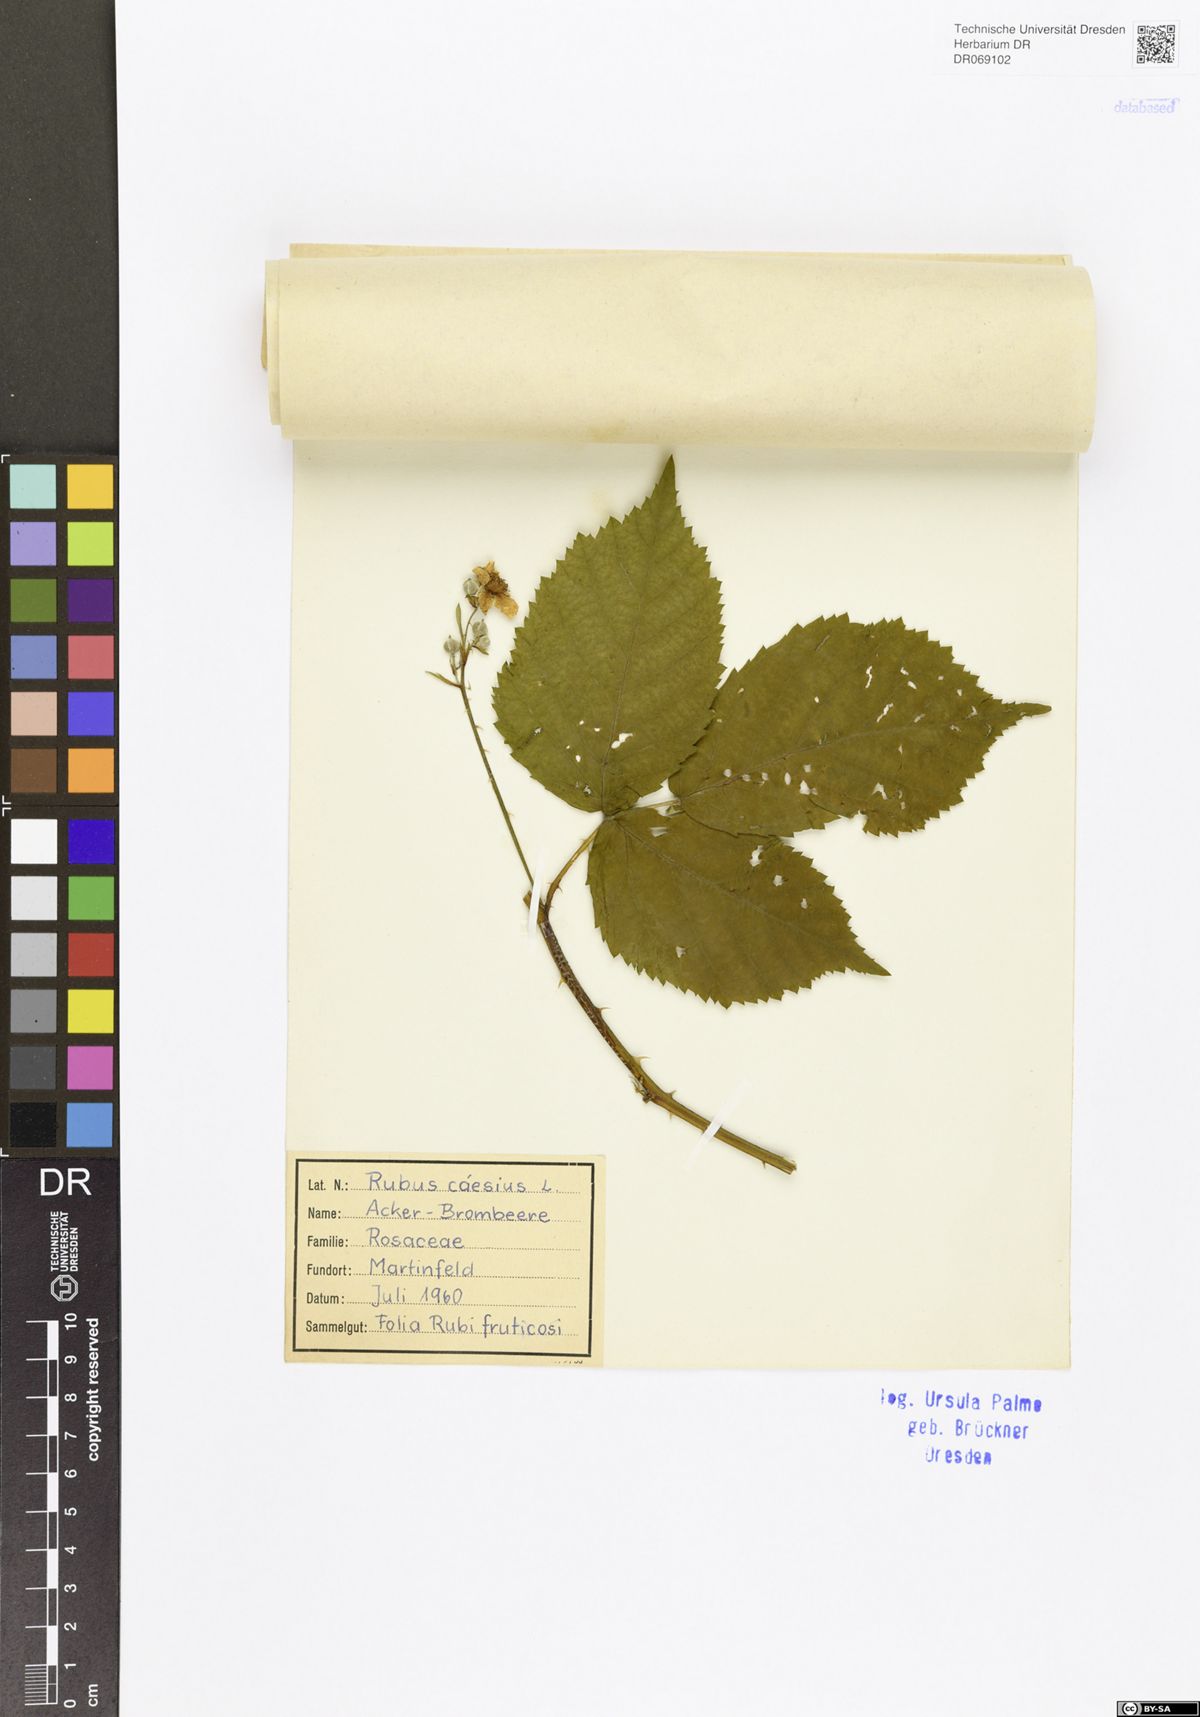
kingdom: Plantae
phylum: Tracheophyta
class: Magnoliopsida
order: Rosales
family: Rosaceae
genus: Rubus
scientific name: Rubus caesius
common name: Dewberry
